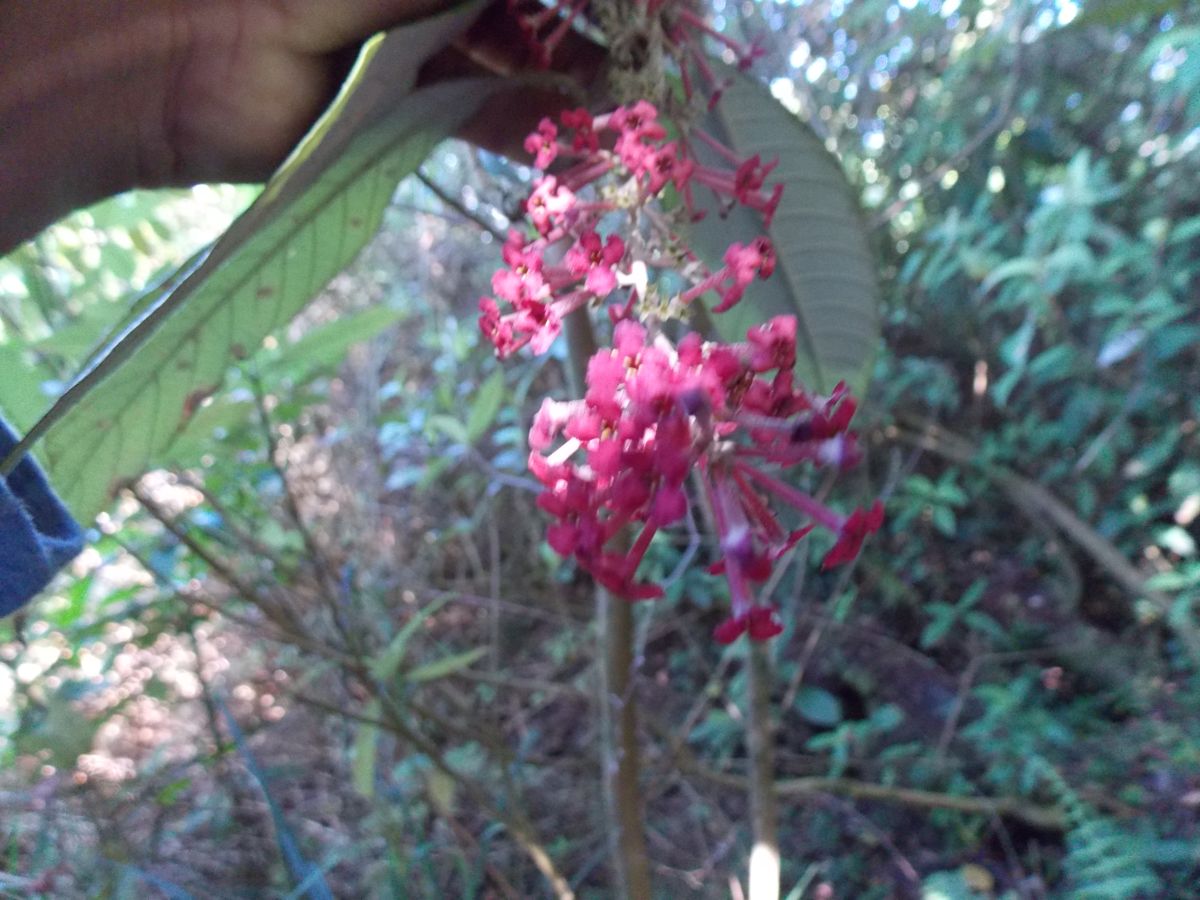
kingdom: Plantae
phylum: Tracheophyta
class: Magnoliopsida
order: Gentianales
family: Rubiaceae
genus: Arachnothryx
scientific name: Arachnothryx laniflora
